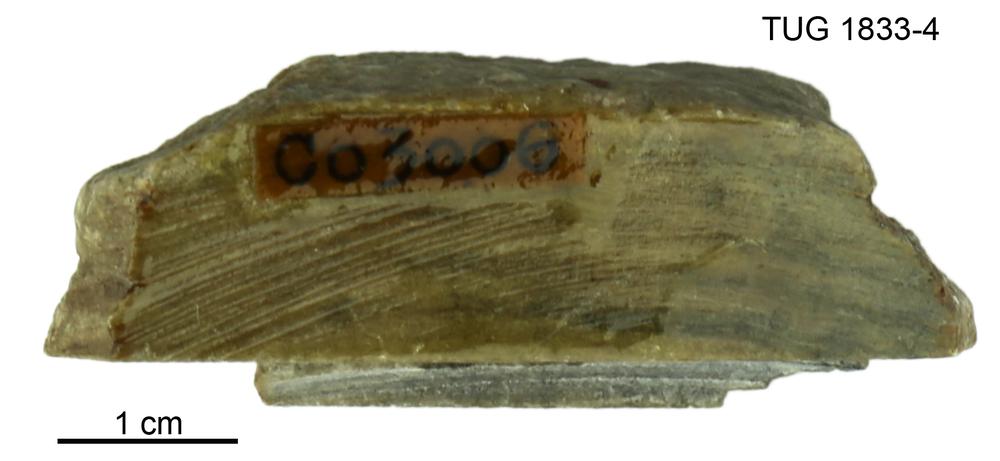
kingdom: Animalia
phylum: Porifera
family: Clathrodictyidae
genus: Clathrodictyon
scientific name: Clathrodictyon Stromatopora variolaris
